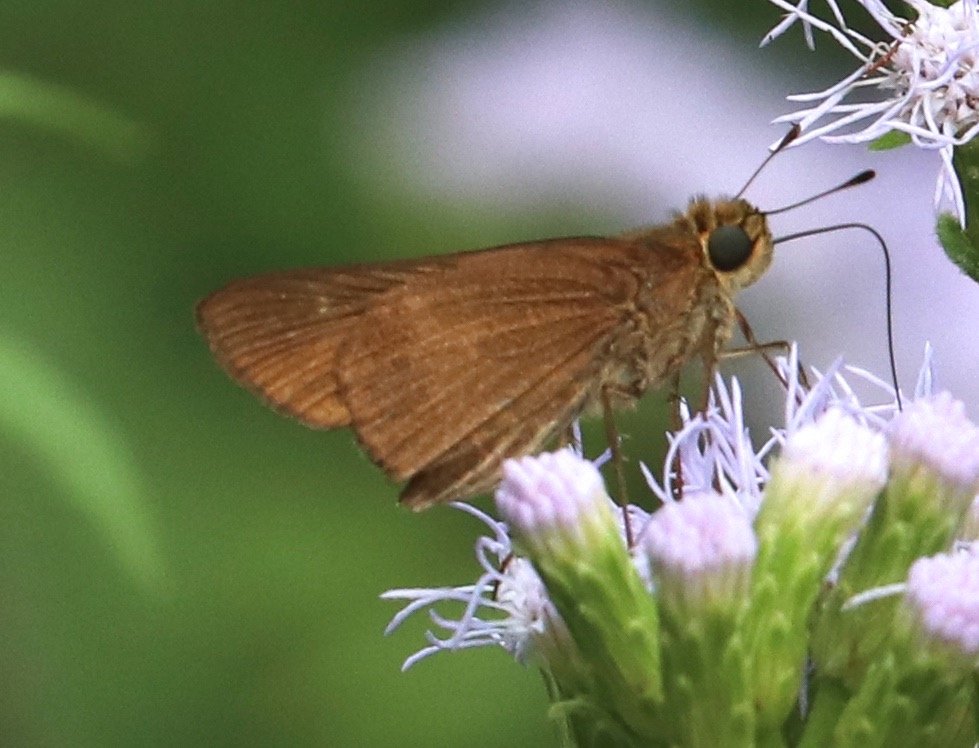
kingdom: Animalia
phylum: Arthropoda
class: Insecta
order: Lepidoptera
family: Hesperiidae
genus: Panoquina
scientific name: Panoquina ocola
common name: Ocola Skipper
